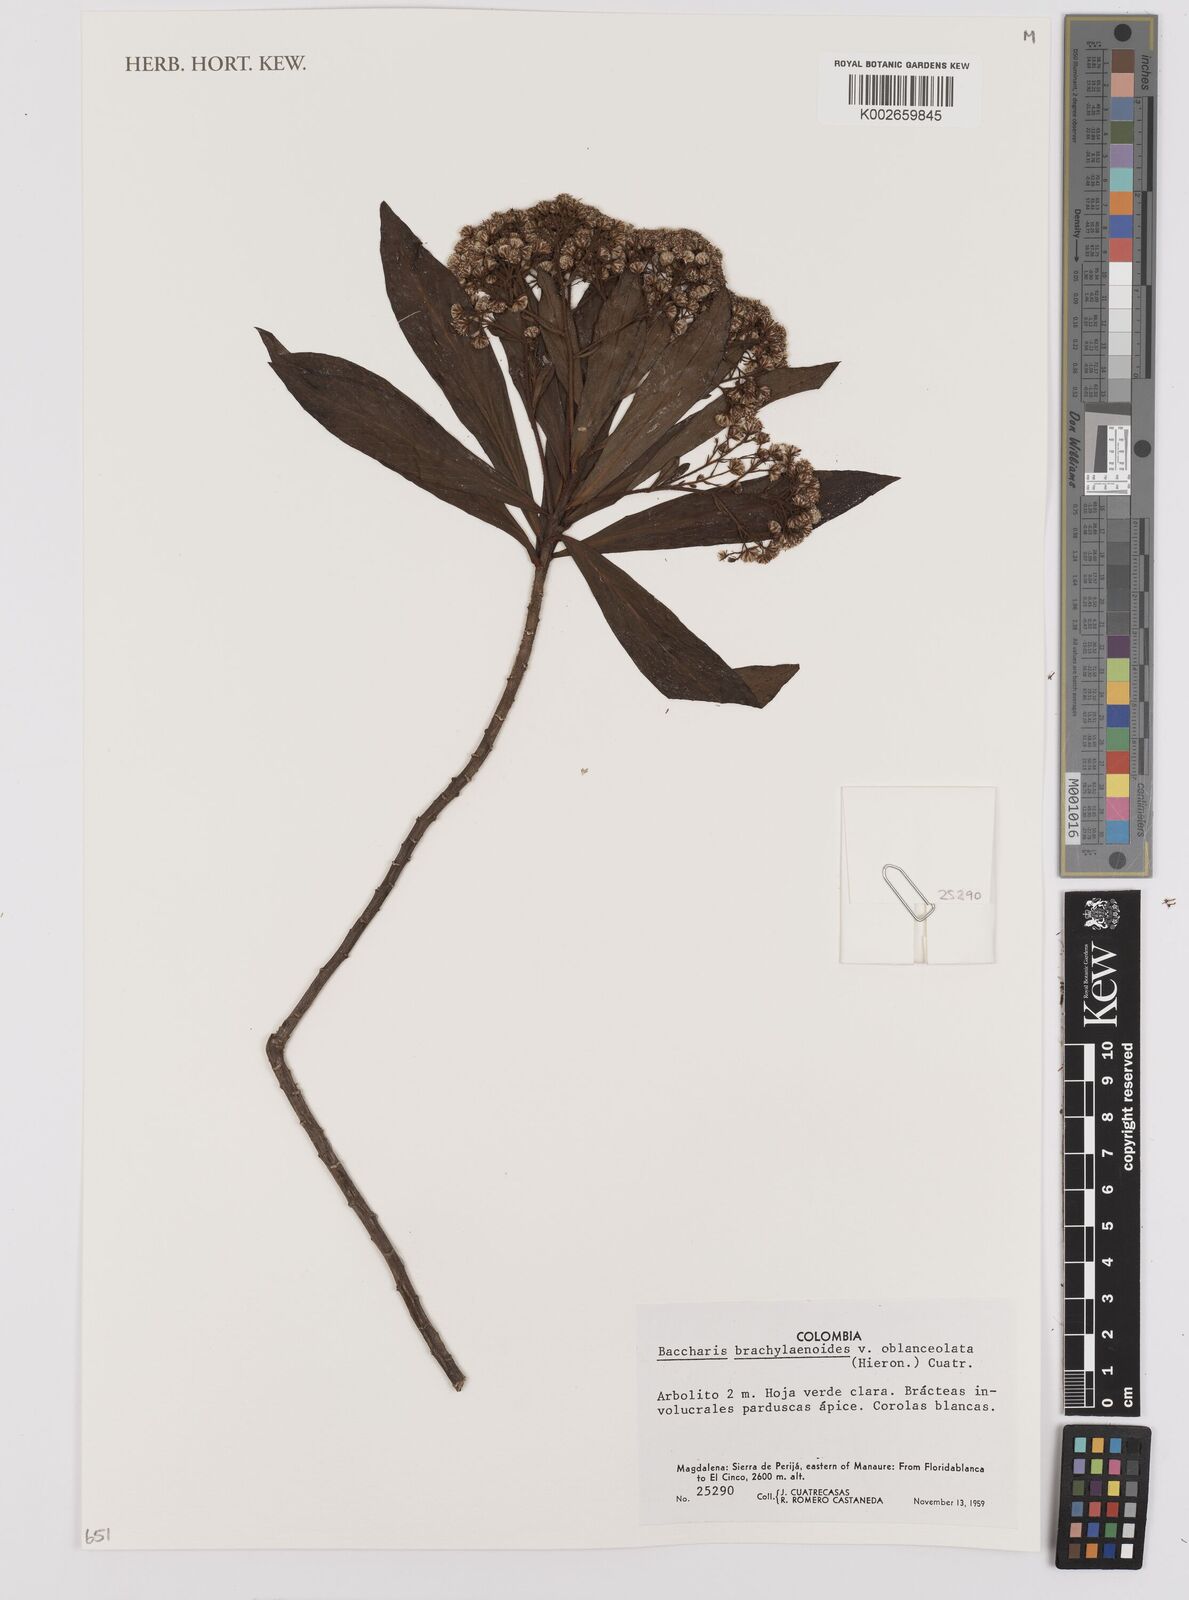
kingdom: Plantae
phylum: Tracheophyta
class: Magnoliopsida
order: Asterales
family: Asteraceae
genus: Baccharis
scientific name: Baccharis oblongifolia
